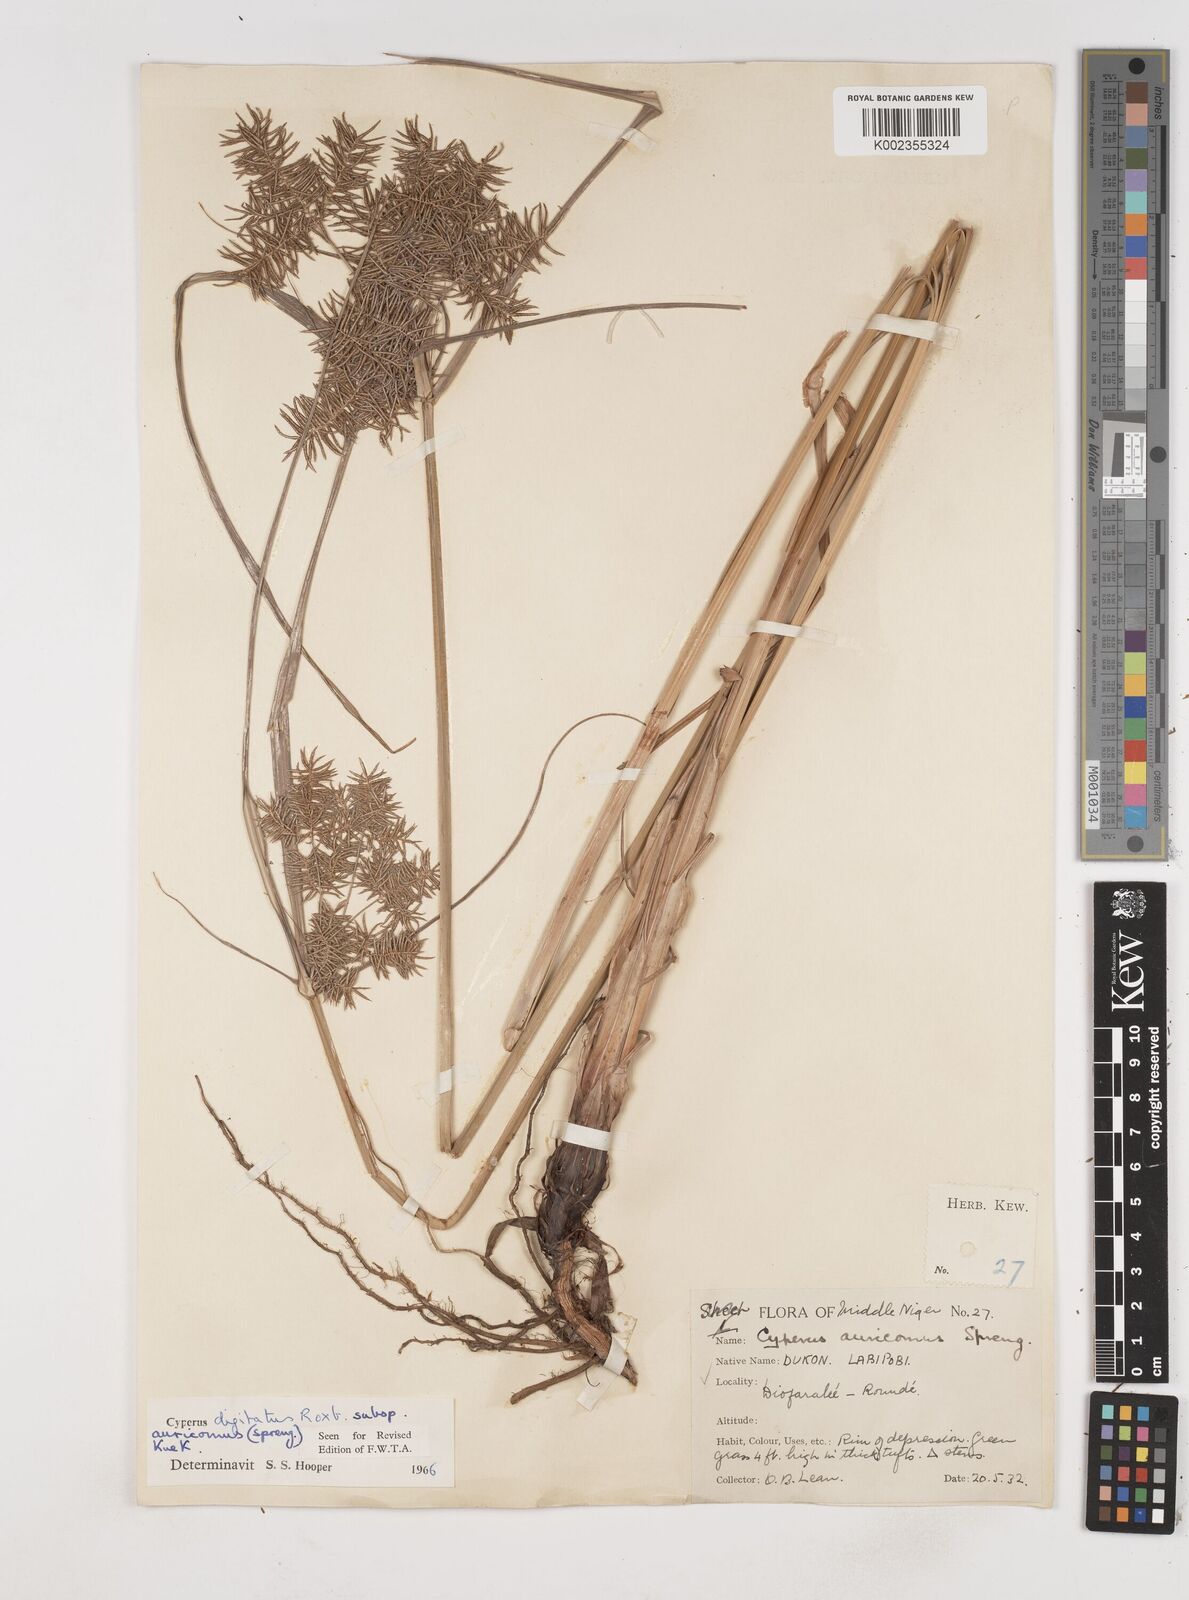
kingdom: Plantae
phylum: Tracheophyta
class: Liliopsida
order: Poales
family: Cyperaceae
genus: Cyperus
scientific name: Cyperus digitatus
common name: Finger flatsedge
